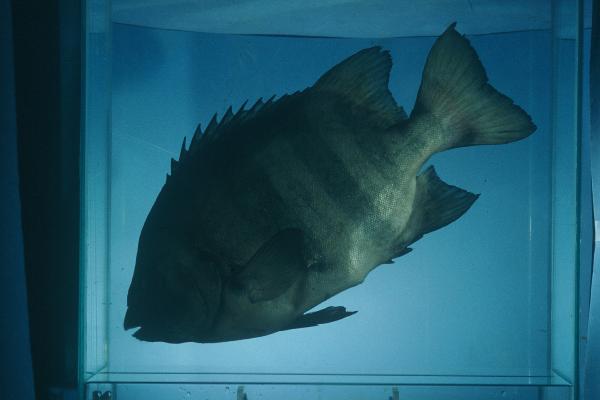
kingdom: Animalia
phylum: Chordata
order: Perciformes
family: Oplegnathidae
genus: Oplegnathus
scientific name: Oplegnathus fasciatus
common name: Barred knifejaw
